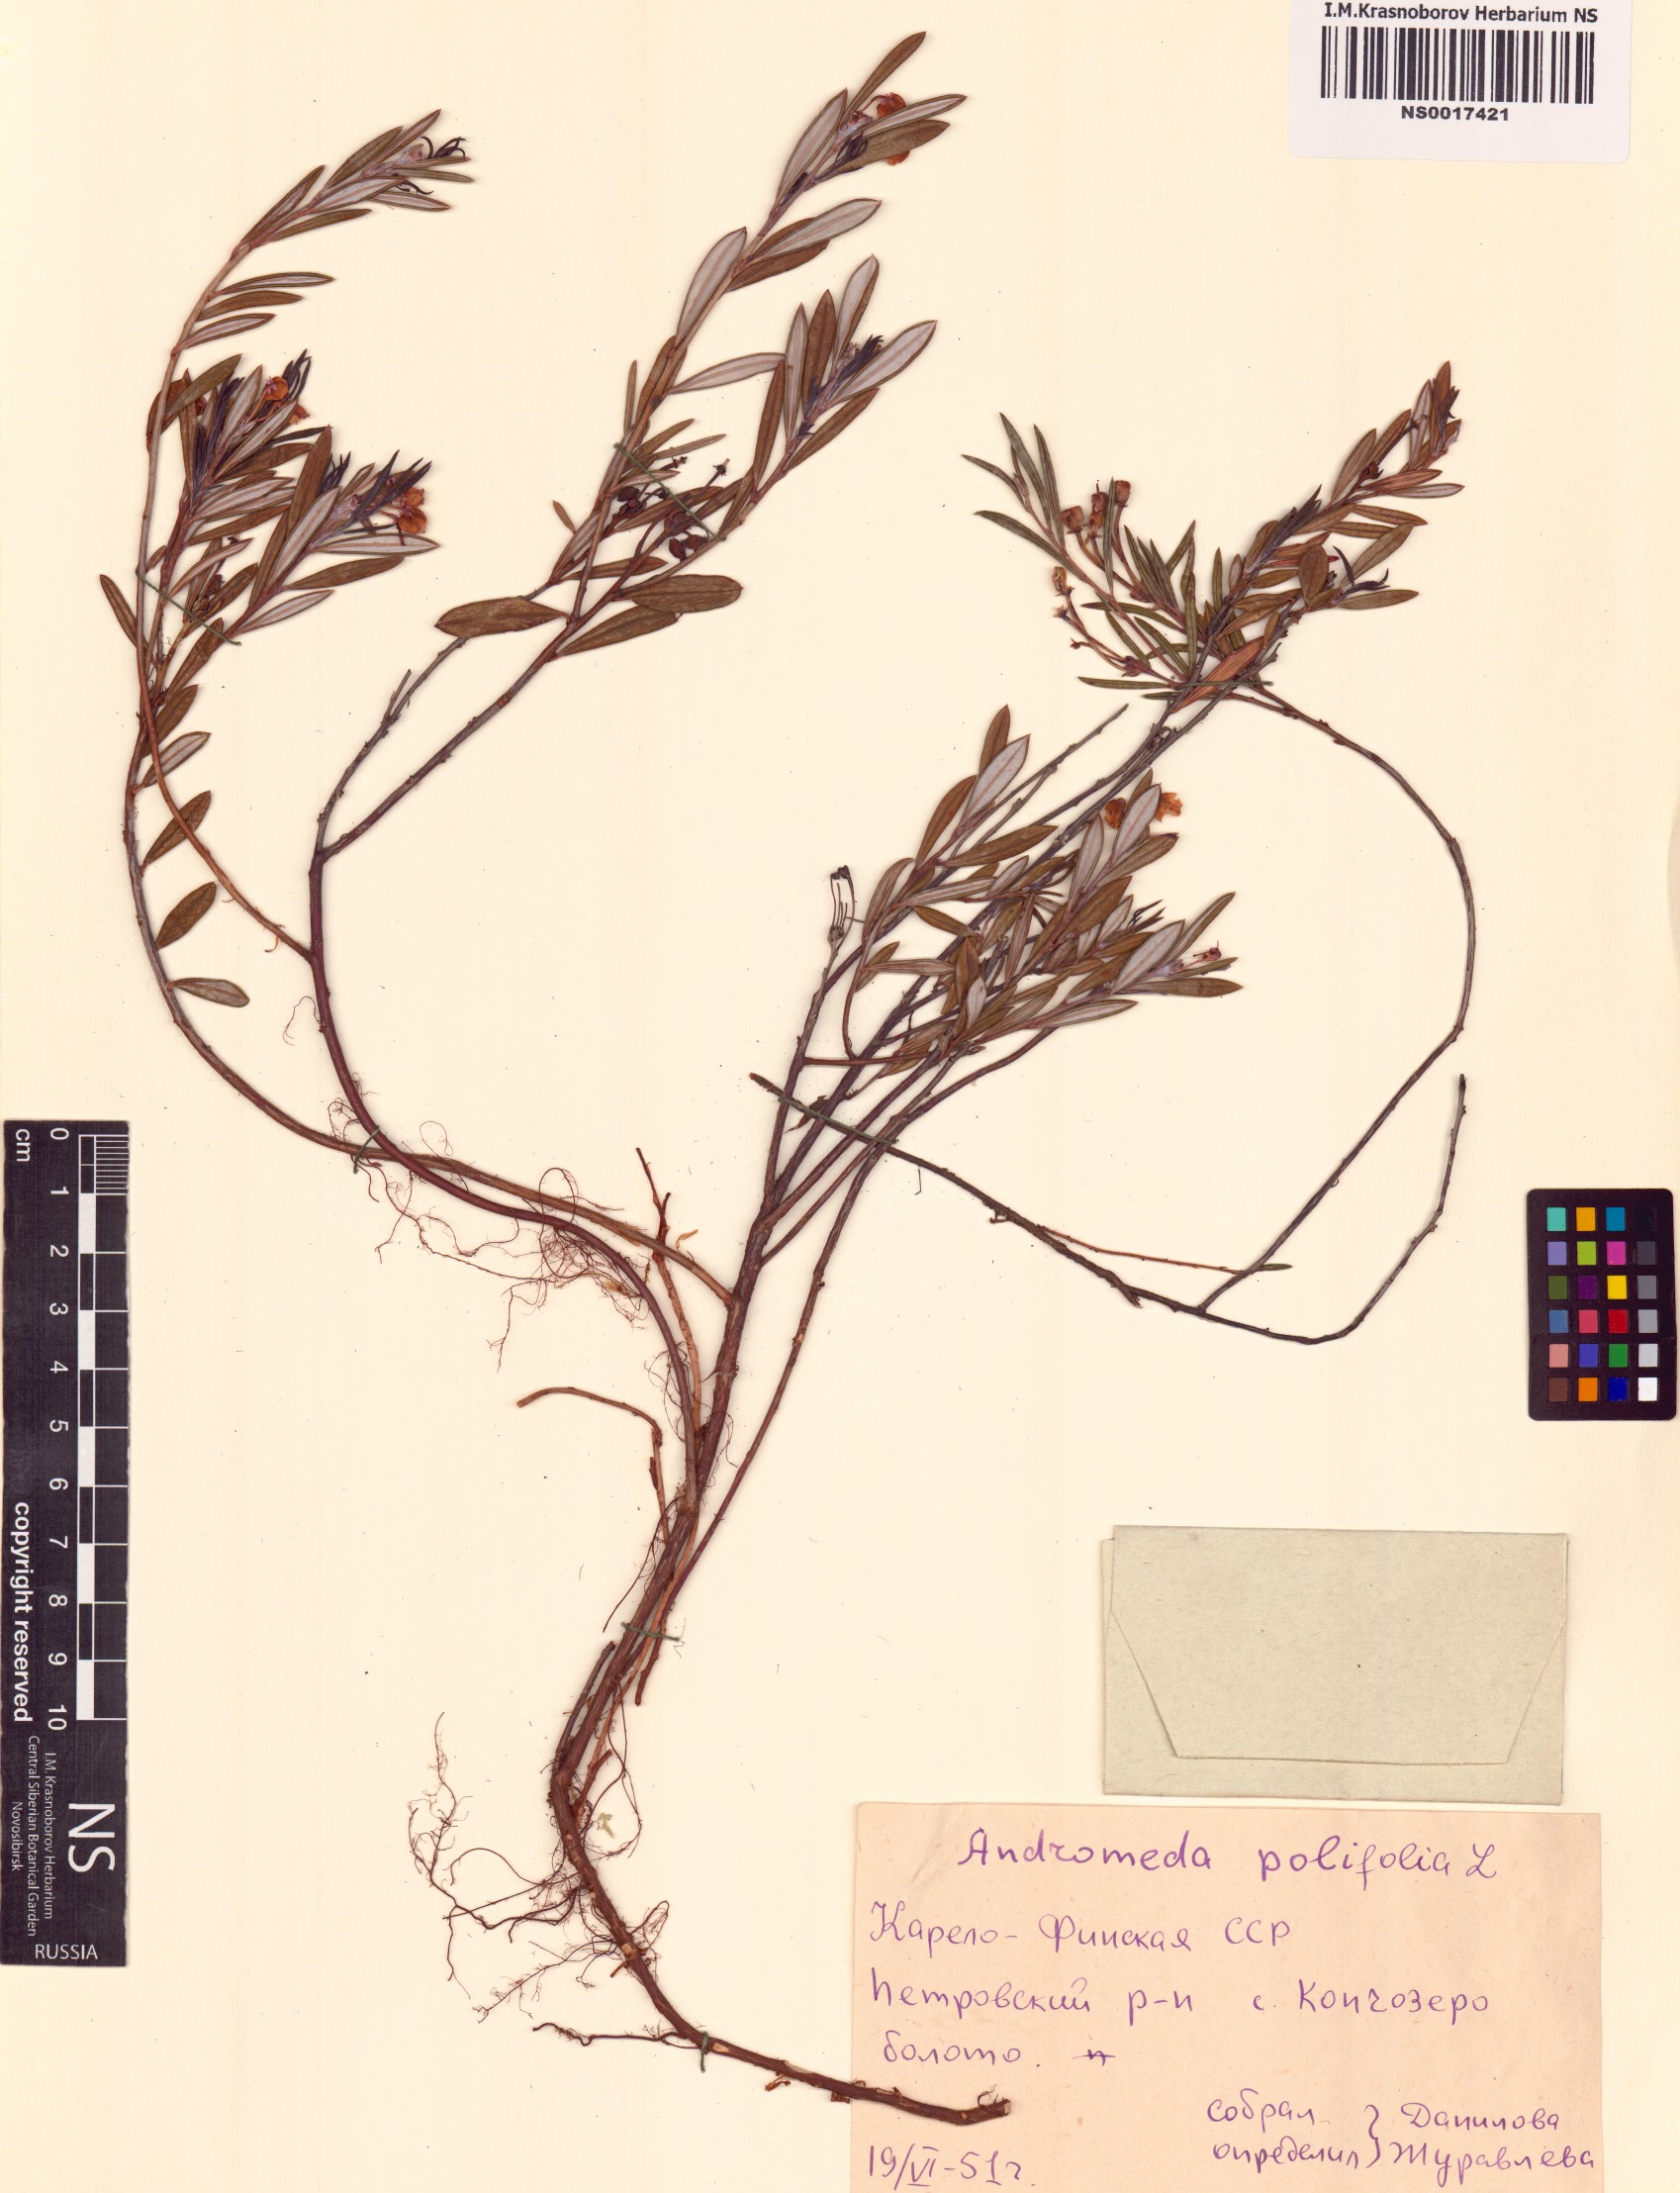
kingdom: Plantae
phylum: Tracheophyta
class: Magnoliopsida
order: Ericales
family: Ericaceae
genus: Andromeda
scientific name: Andromeda polifolia
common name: Bog-rosemary
